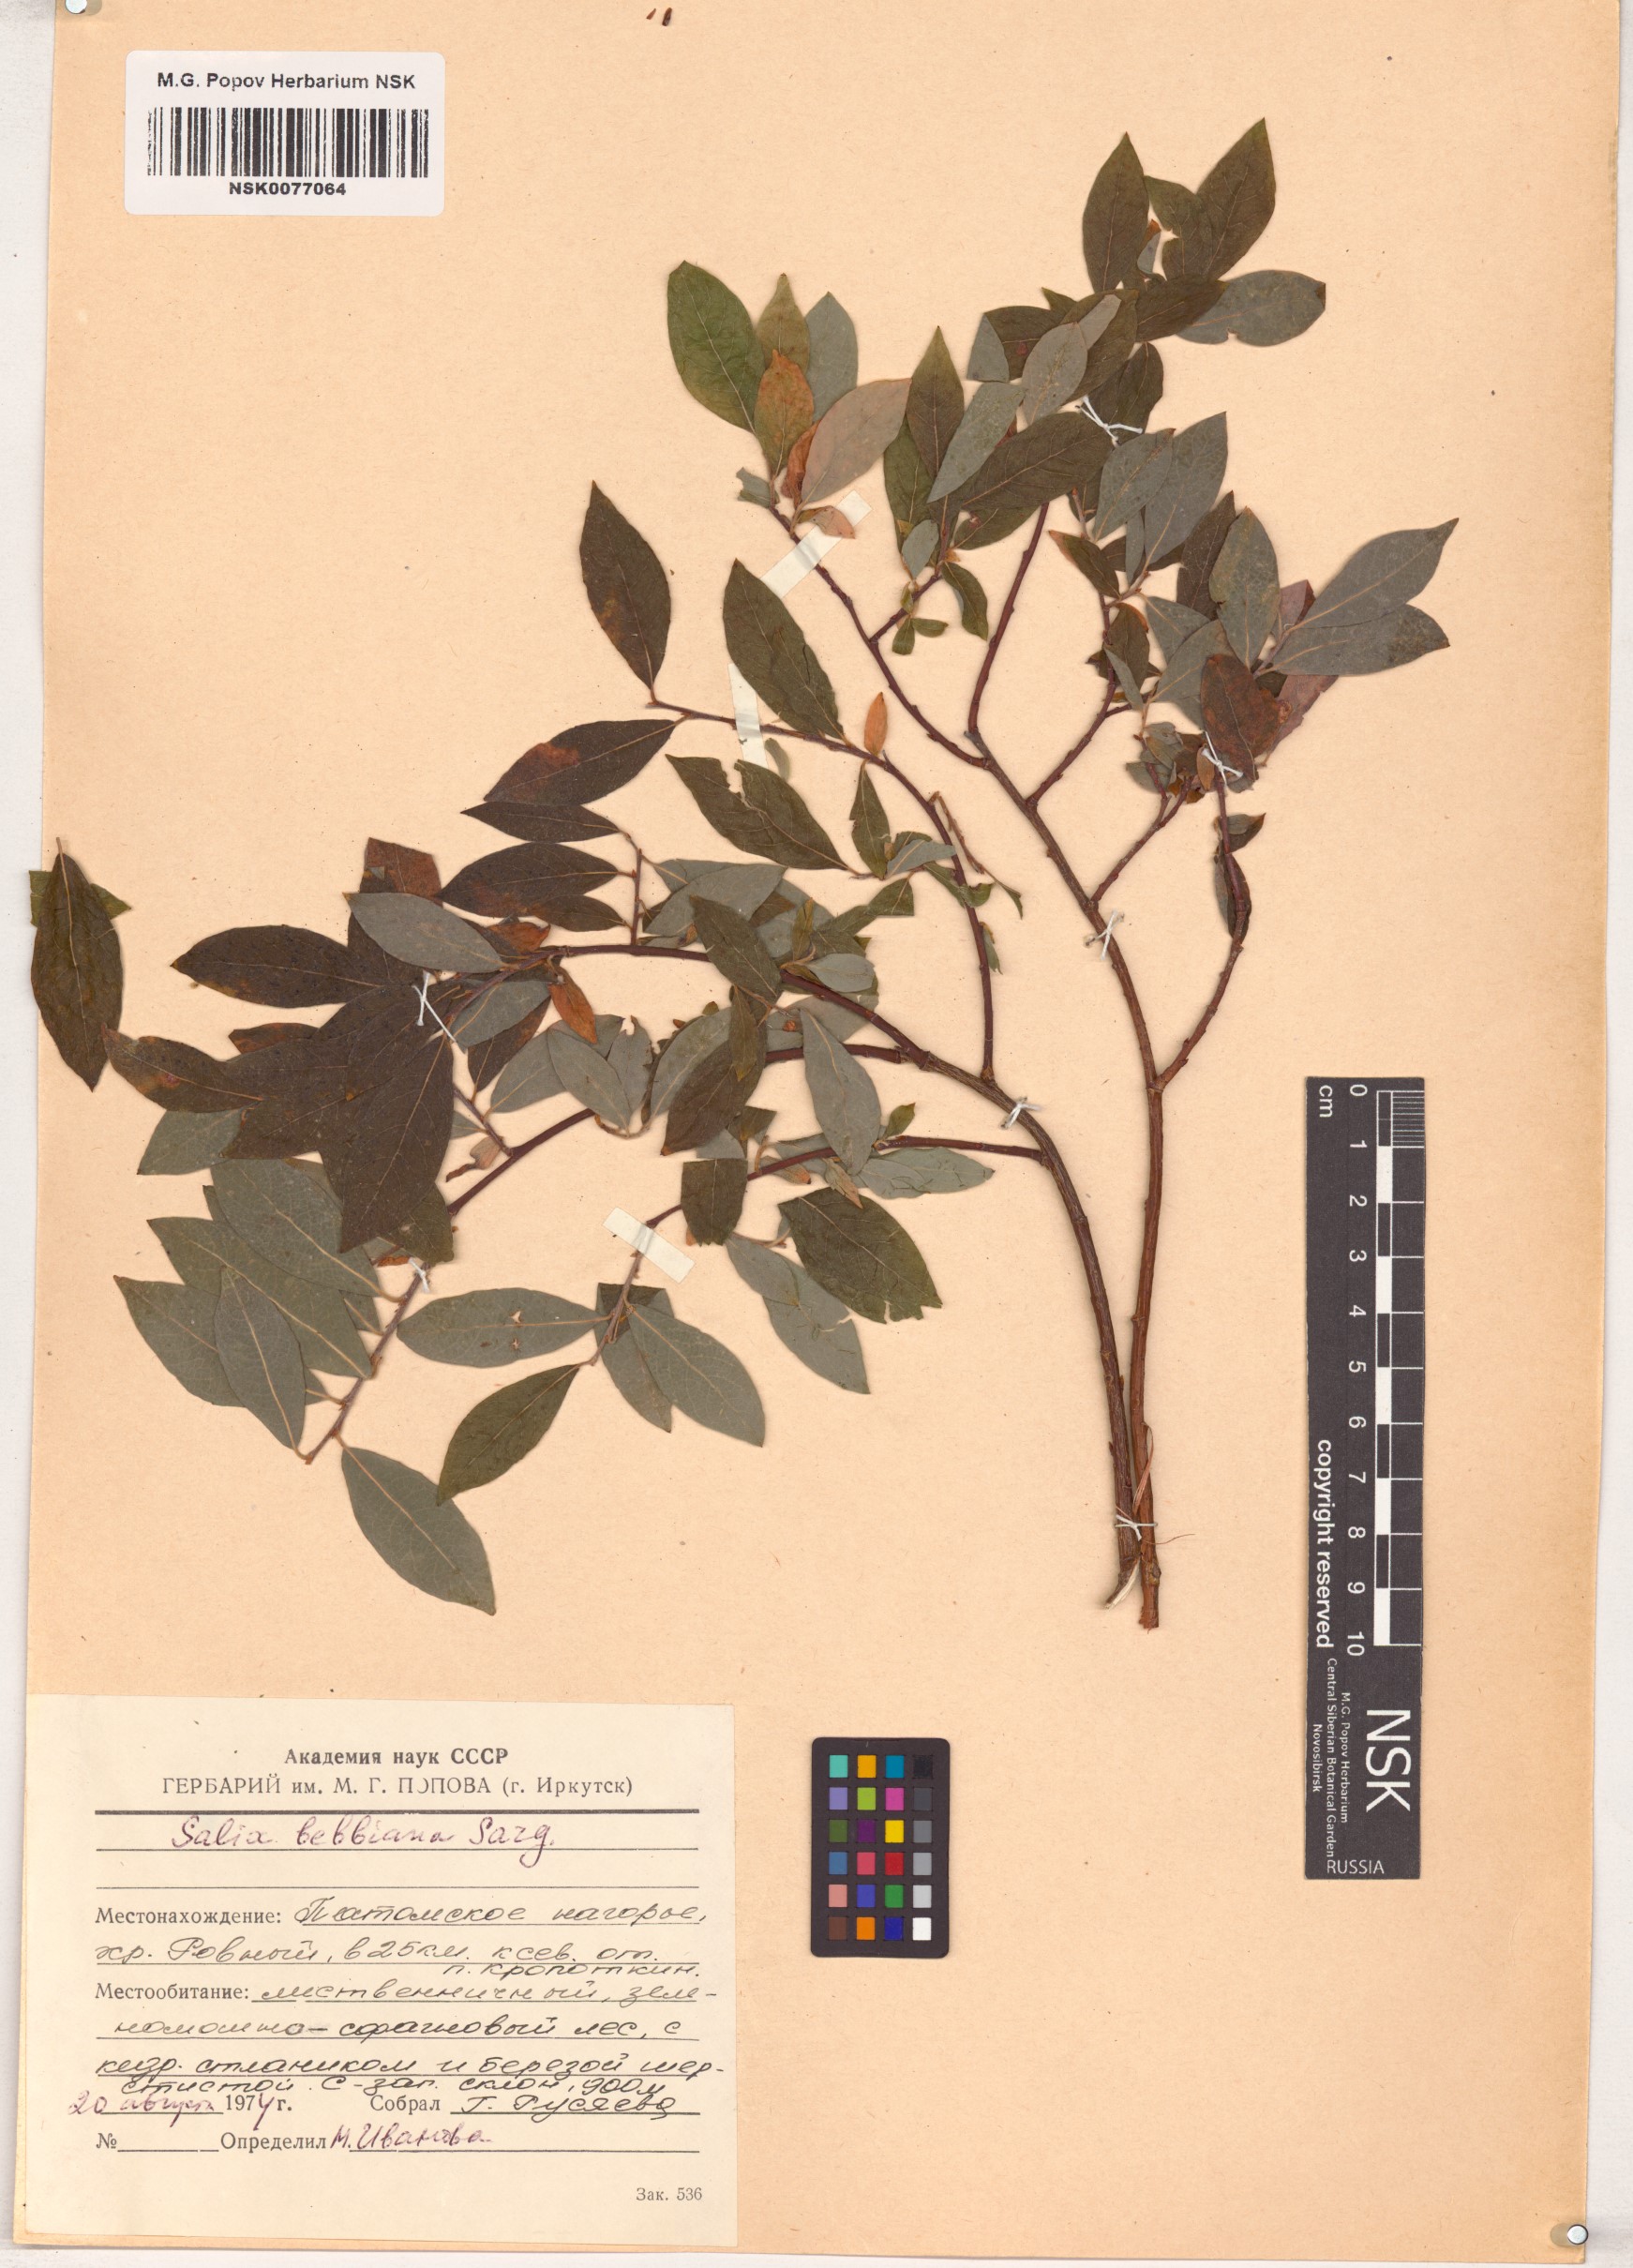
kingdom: Plantae
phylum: Tracheophyta
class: Magnoliopsida
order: Malpighiales
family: Salicaceae
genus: Salix
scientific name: Salix bebbiana
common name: Bebb's willow
